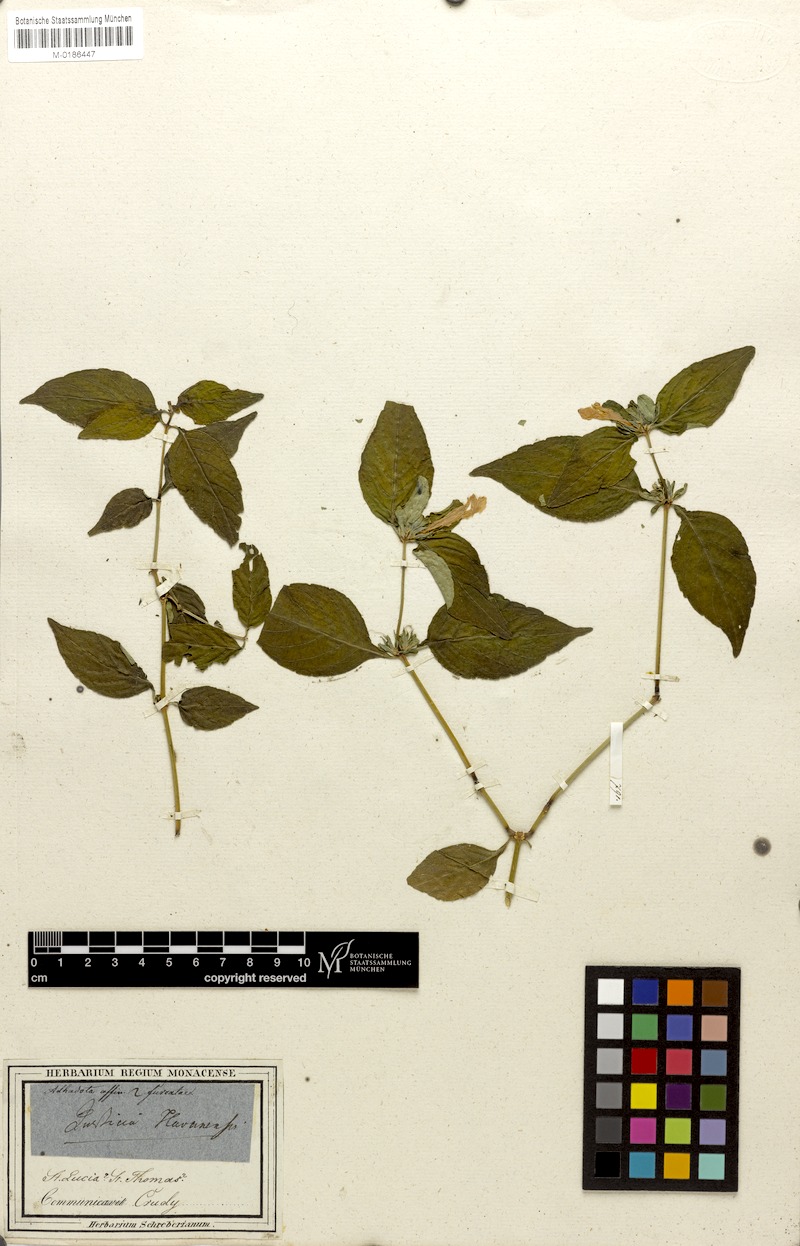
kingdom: Plantae
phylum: Tracheophyta
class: Magnoliopsida
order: Lamiales
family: Acanthaceae
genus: Justicia
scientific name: Justicia carthaginensis
